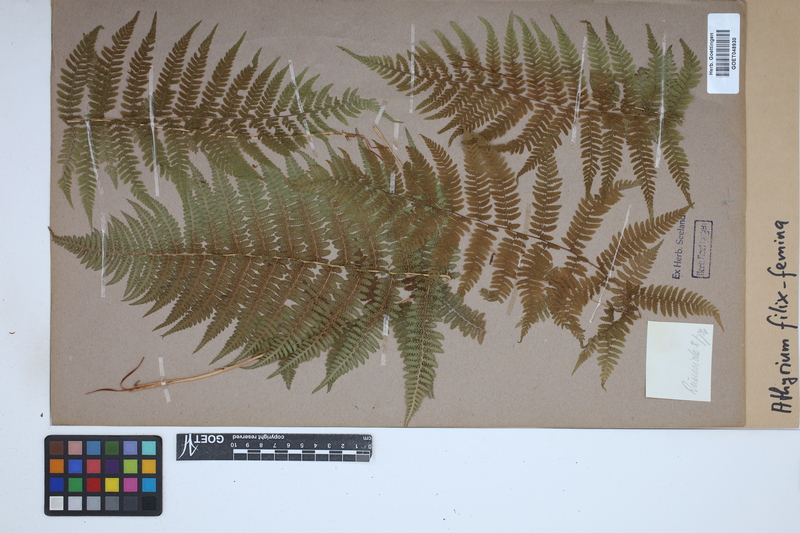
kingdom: Plantae
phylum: Tracheophyta
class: Polypodiopsida
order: Polypodiales
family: Athyriaceae
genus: Athyrium
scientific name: Athyrium filix-femina
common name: Lady fern
